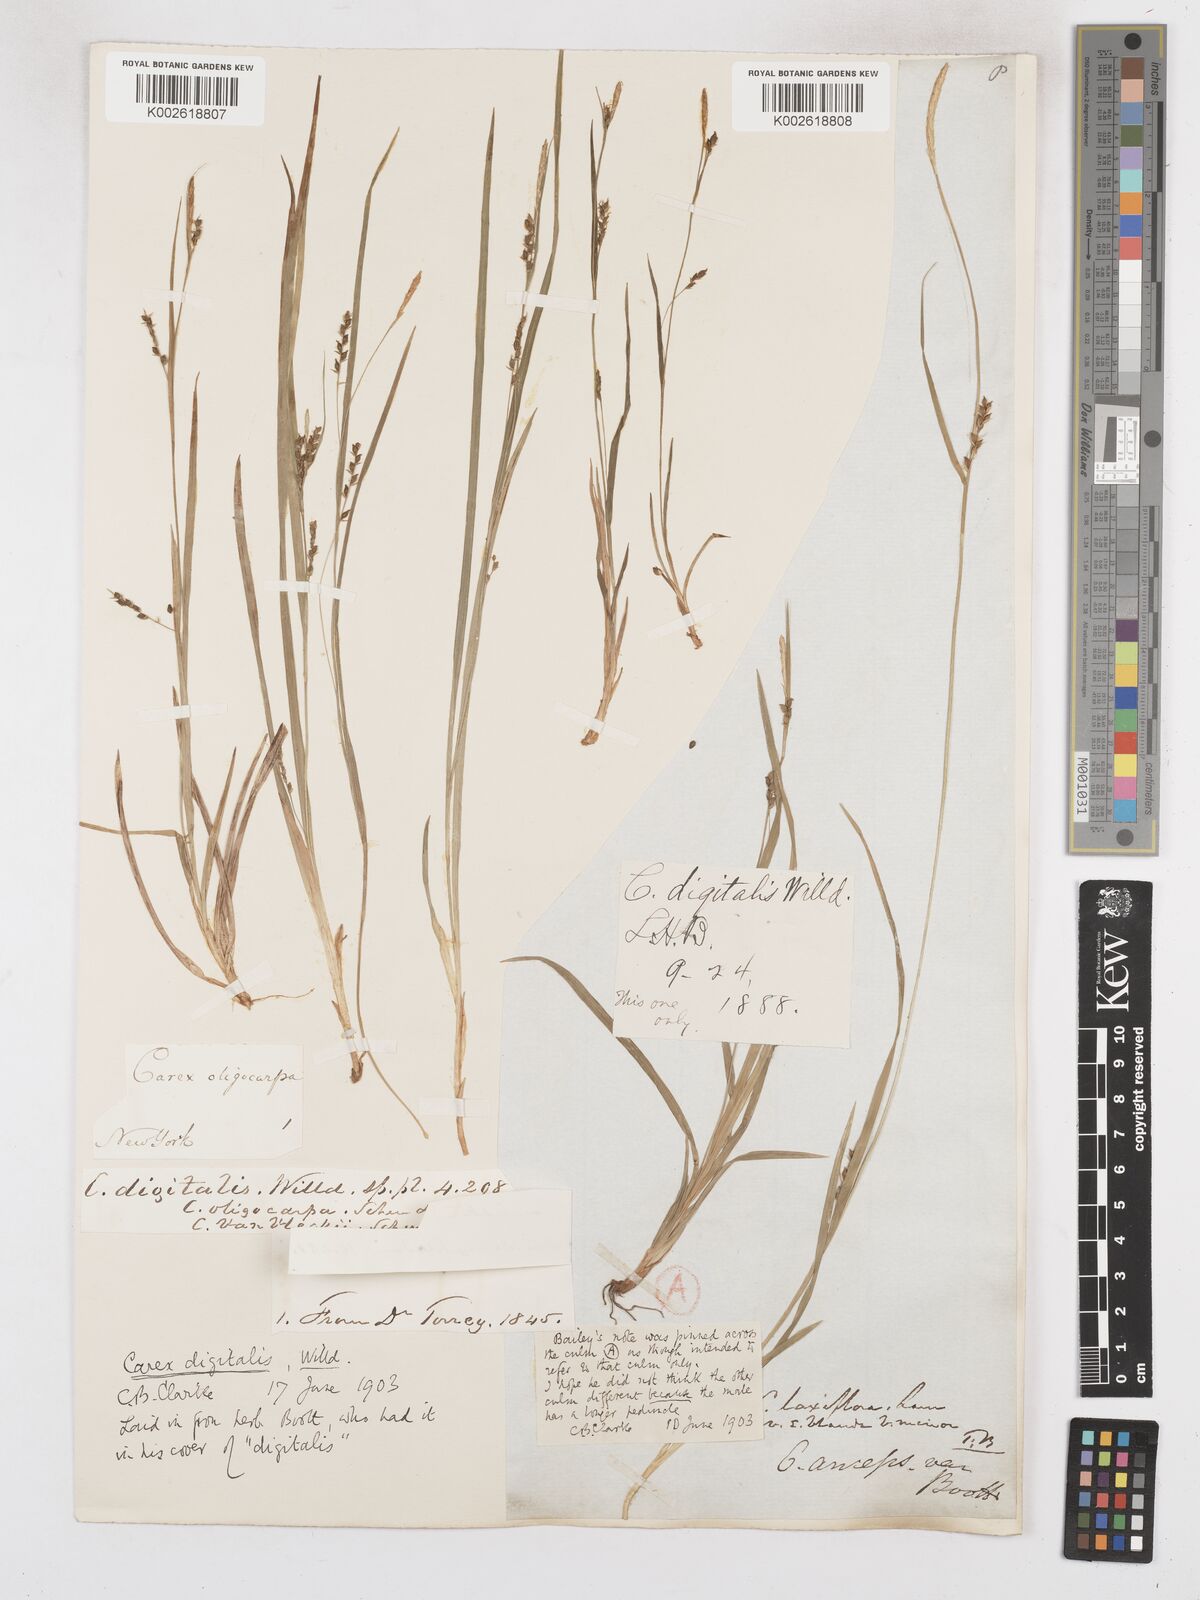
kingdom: Plantae
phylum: Tracheophyta
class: Liliopsida
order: Poales
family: Cyperaceae
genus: Carex
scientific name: Carex digitalis
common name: Slender wood sedge
